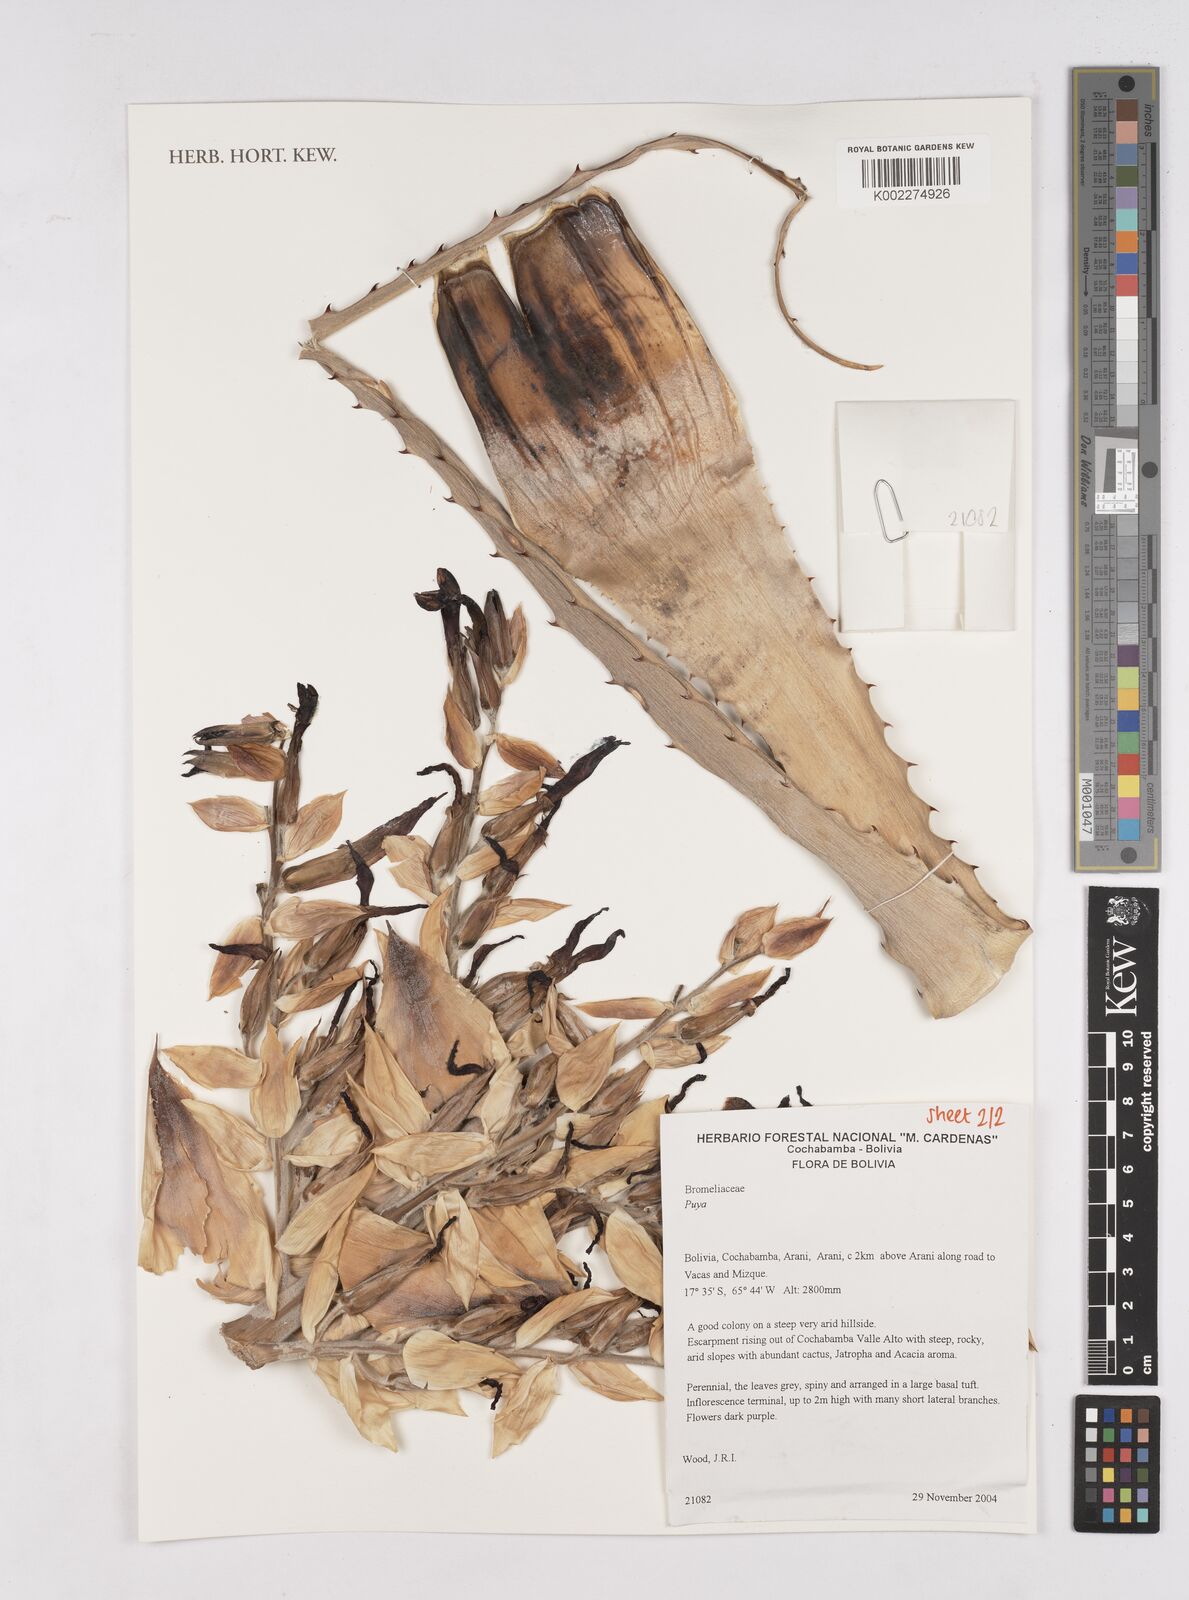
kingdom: Plantae
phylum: Tracheophyta
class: Liliopsida
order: Poales
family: Bromeliaceae
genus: Puya
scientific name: Puya
